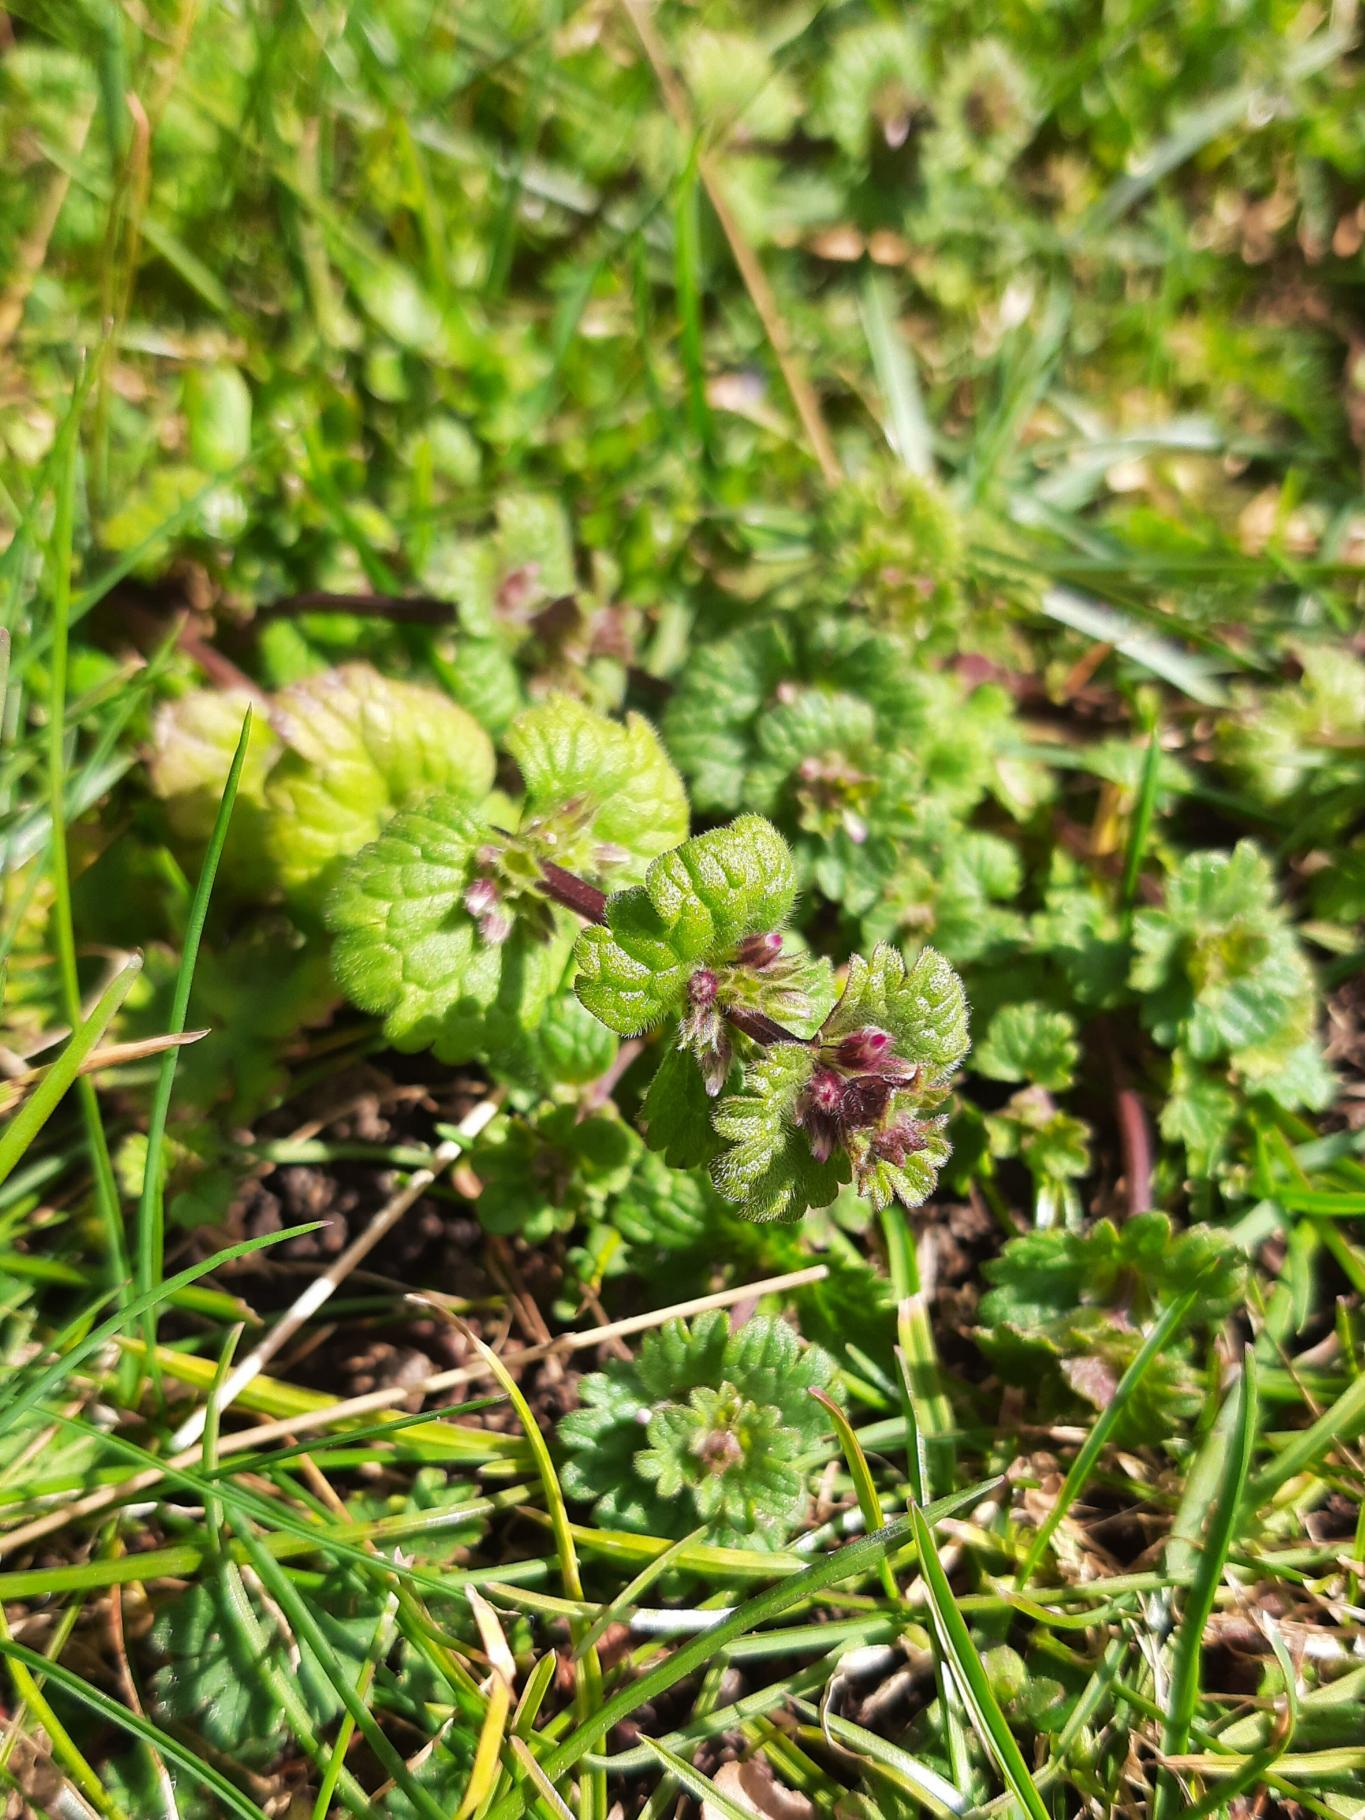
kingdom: Plantae
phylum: Tracheophyta
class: Magnoliopsida
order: Lamiales
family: Lamiaceae
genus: Lamium
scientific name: Lamium amplexicaule
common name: Liden tvetand
